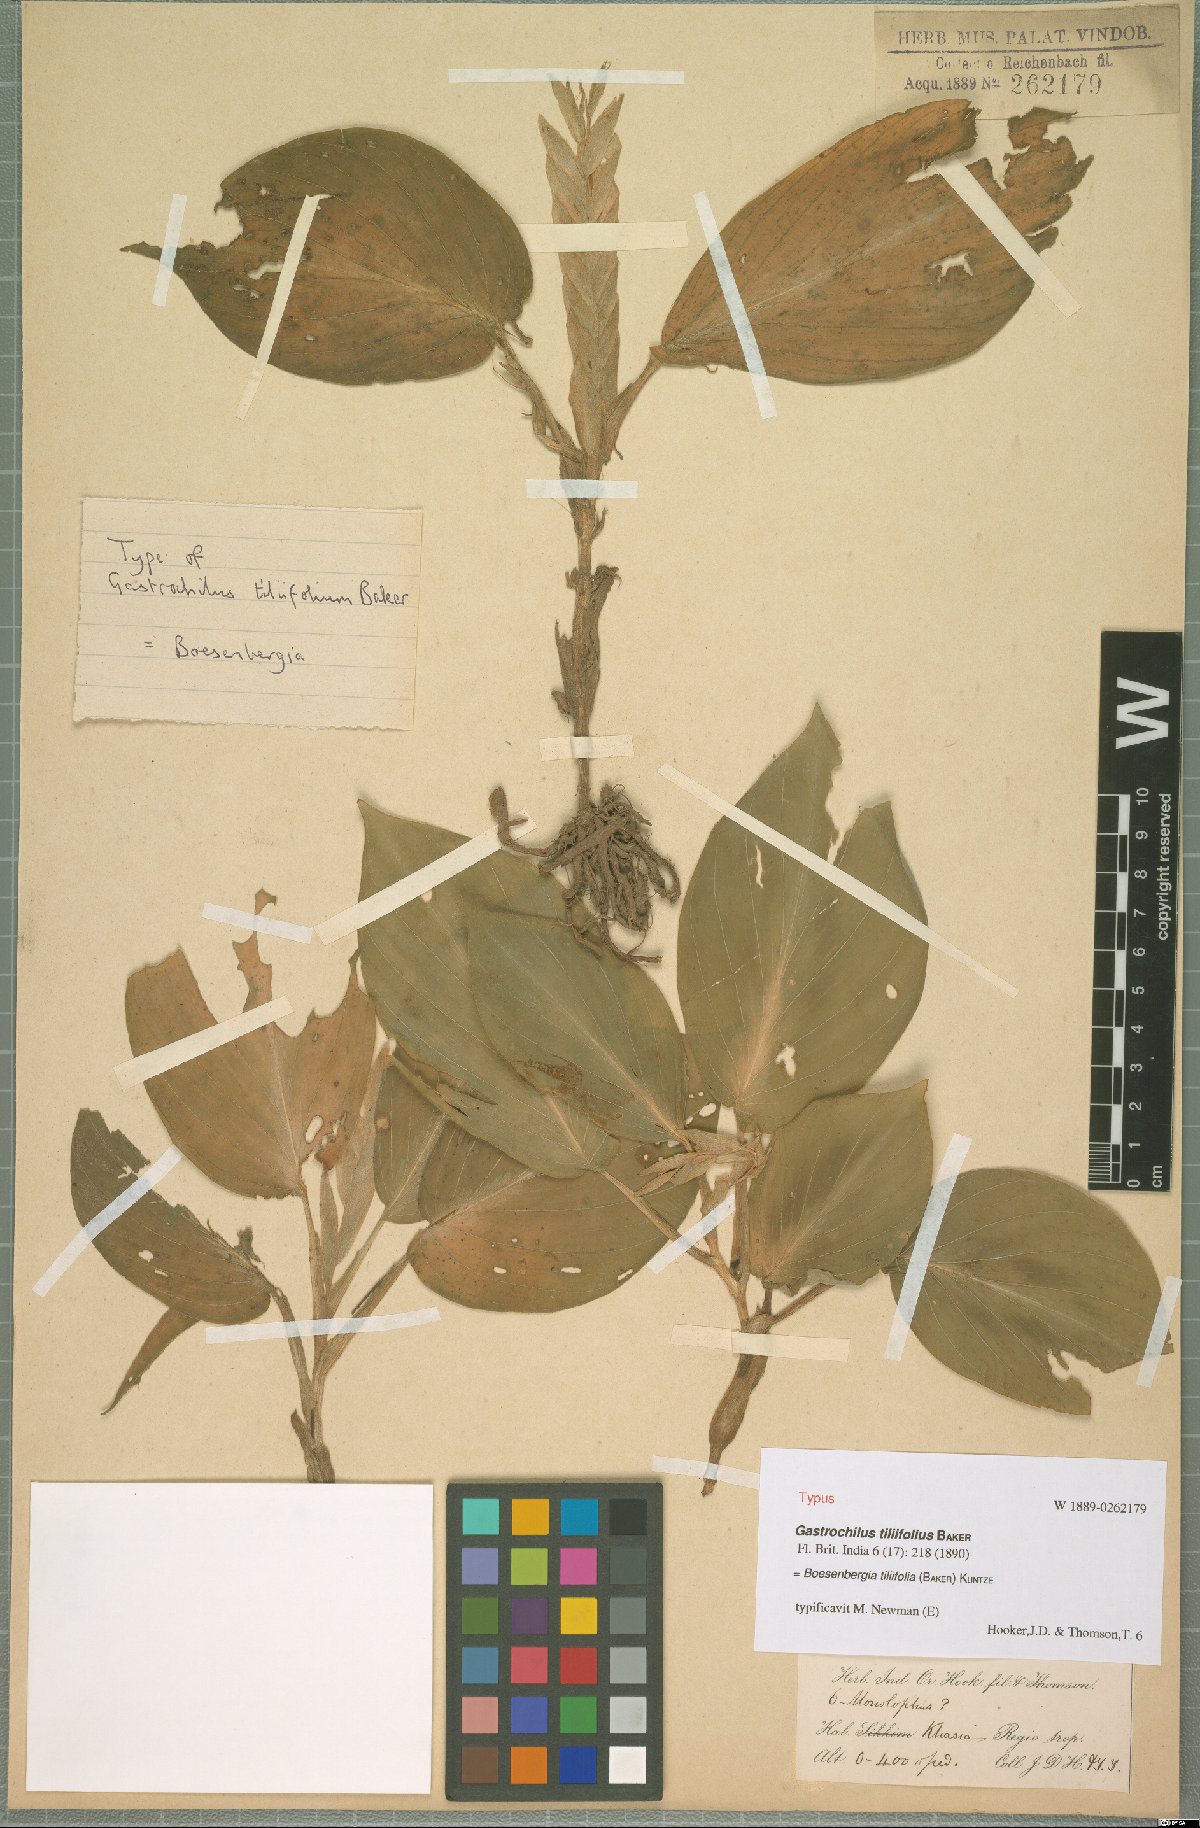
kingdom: Plantae
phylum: Tracheophyta
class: Liliopsida
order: Zingiberales
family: Zingiberaceae
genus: Boesenbergia
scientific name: Boesenbergia tiliifolia
